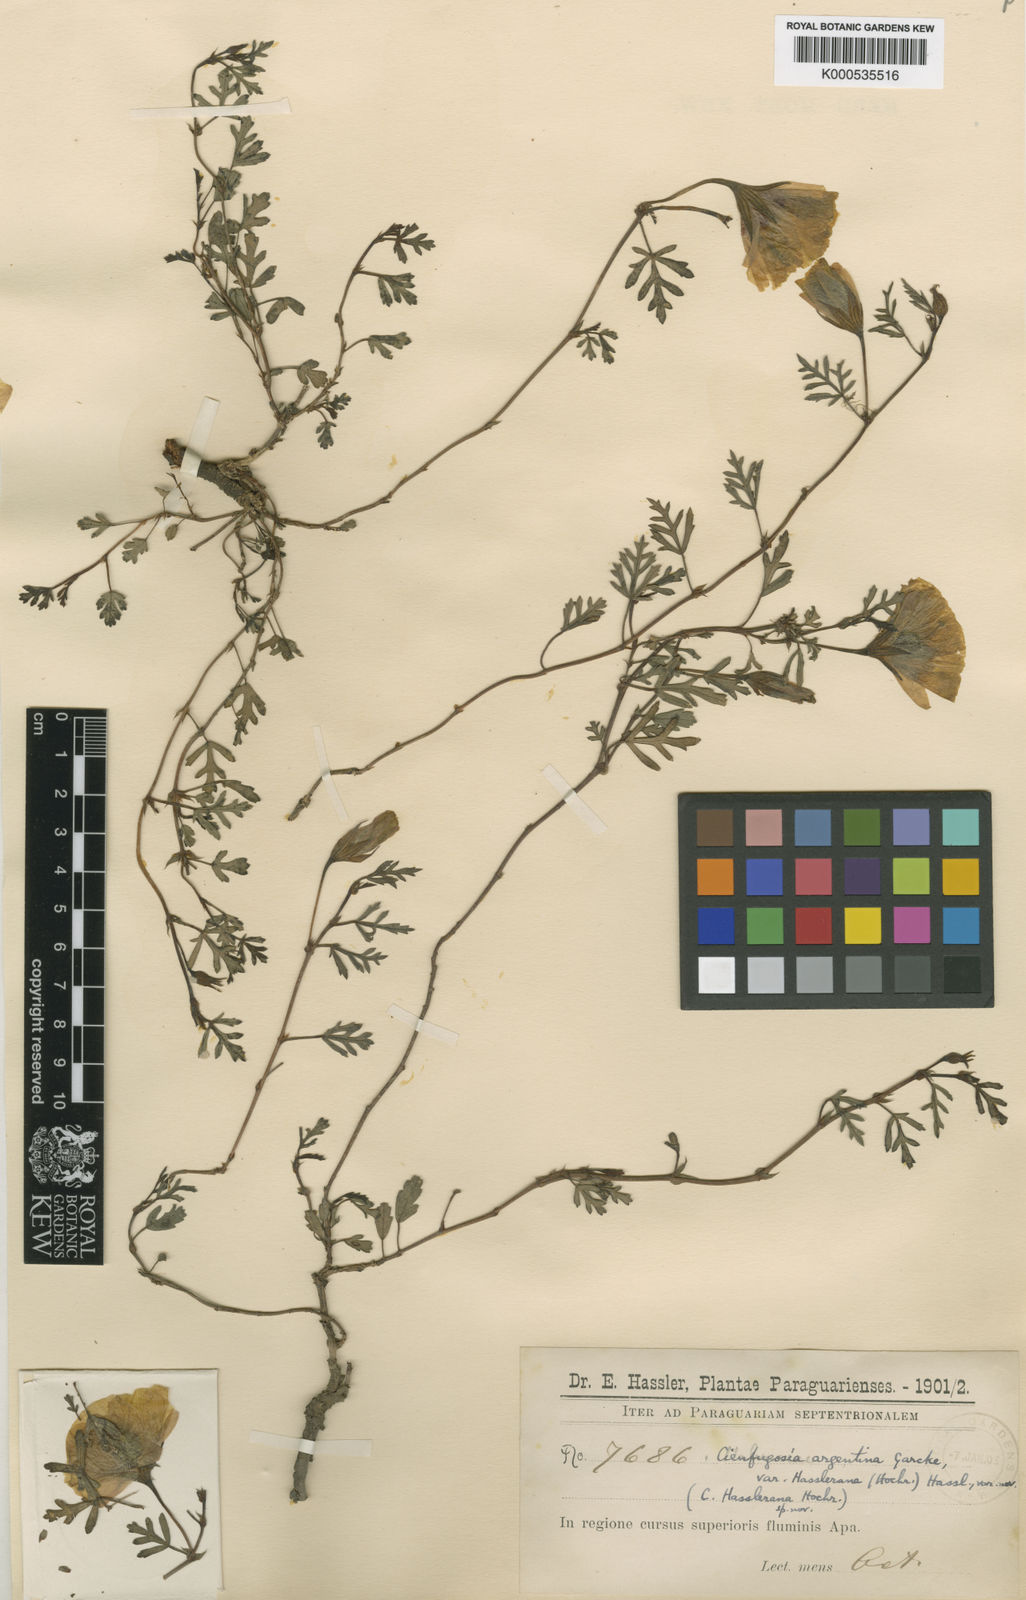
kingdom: Plantae
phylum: Tracheophyta
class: Magnoliopsida
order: Malvales
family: Malvaceae
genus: Cienfuegosia
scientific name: Cienfuegosia hassleriana
